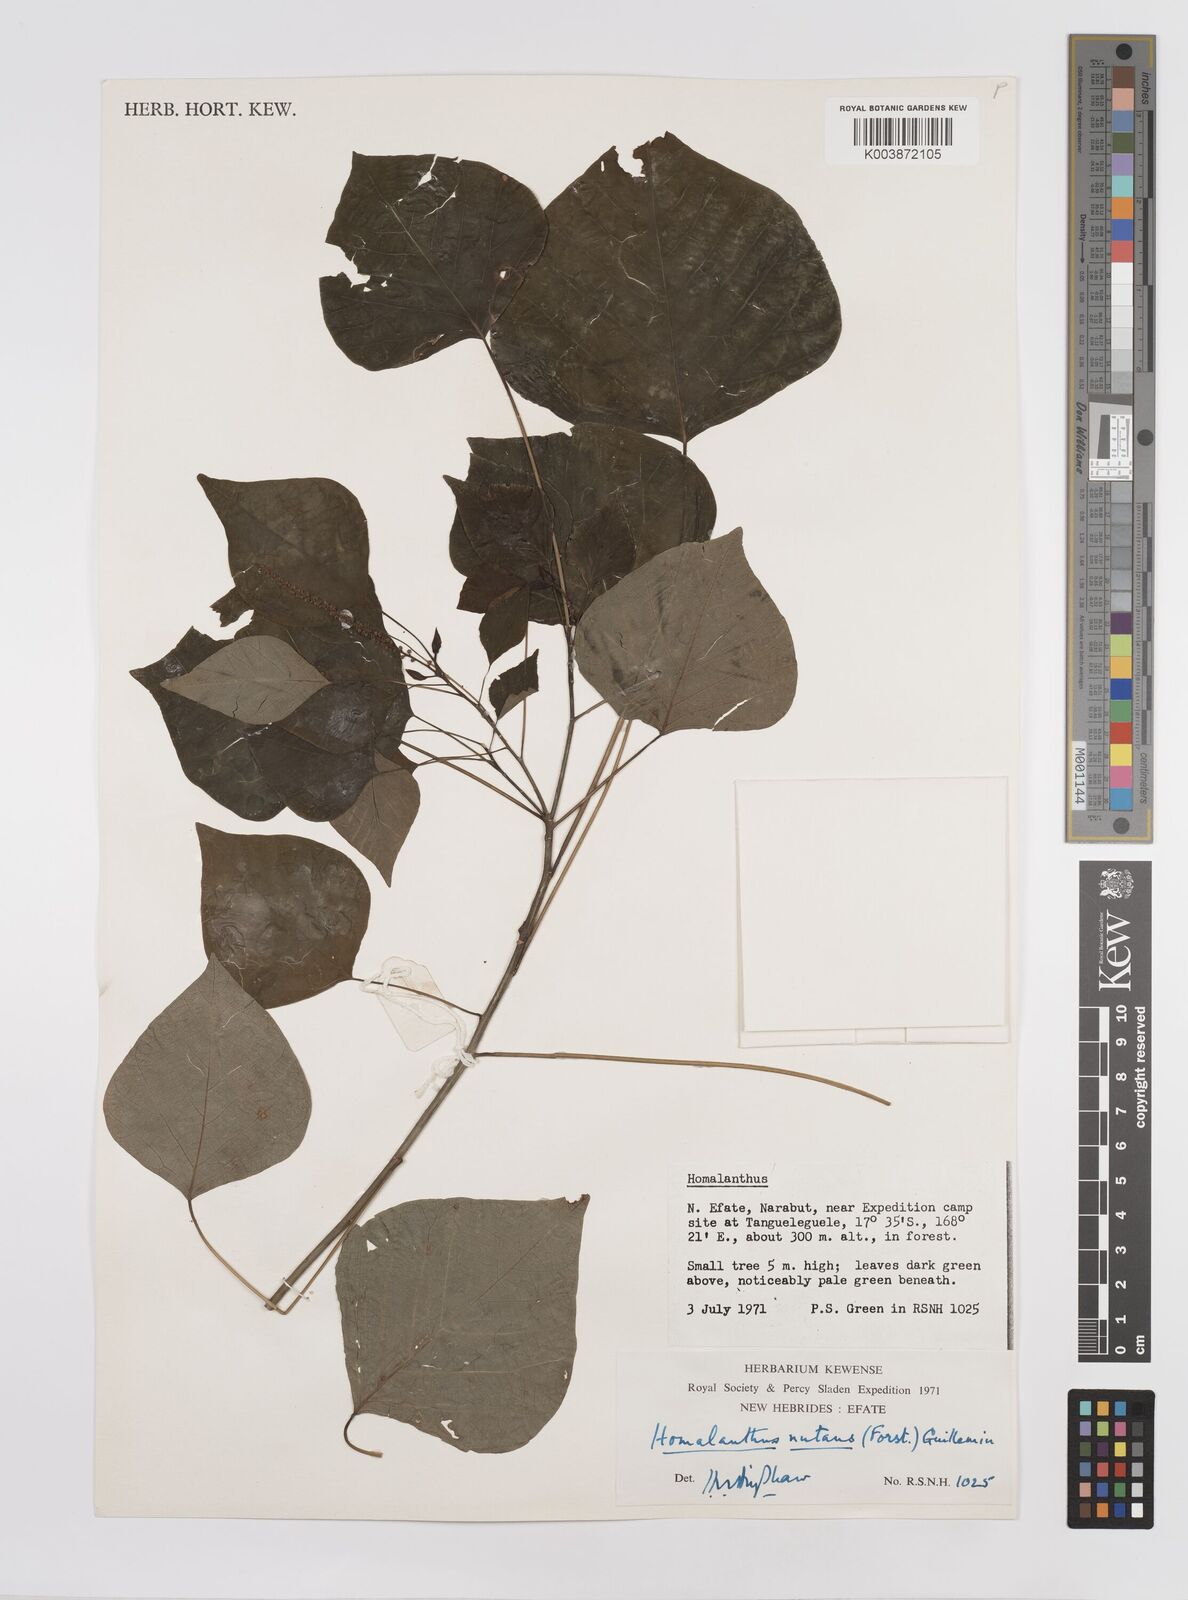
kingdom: Plantae
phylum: Tracheophyta
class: Magnoliopsida
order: Malpighiales
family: Euphorbiaceae
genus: Homalanthus
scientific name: Homalanthus nutans
